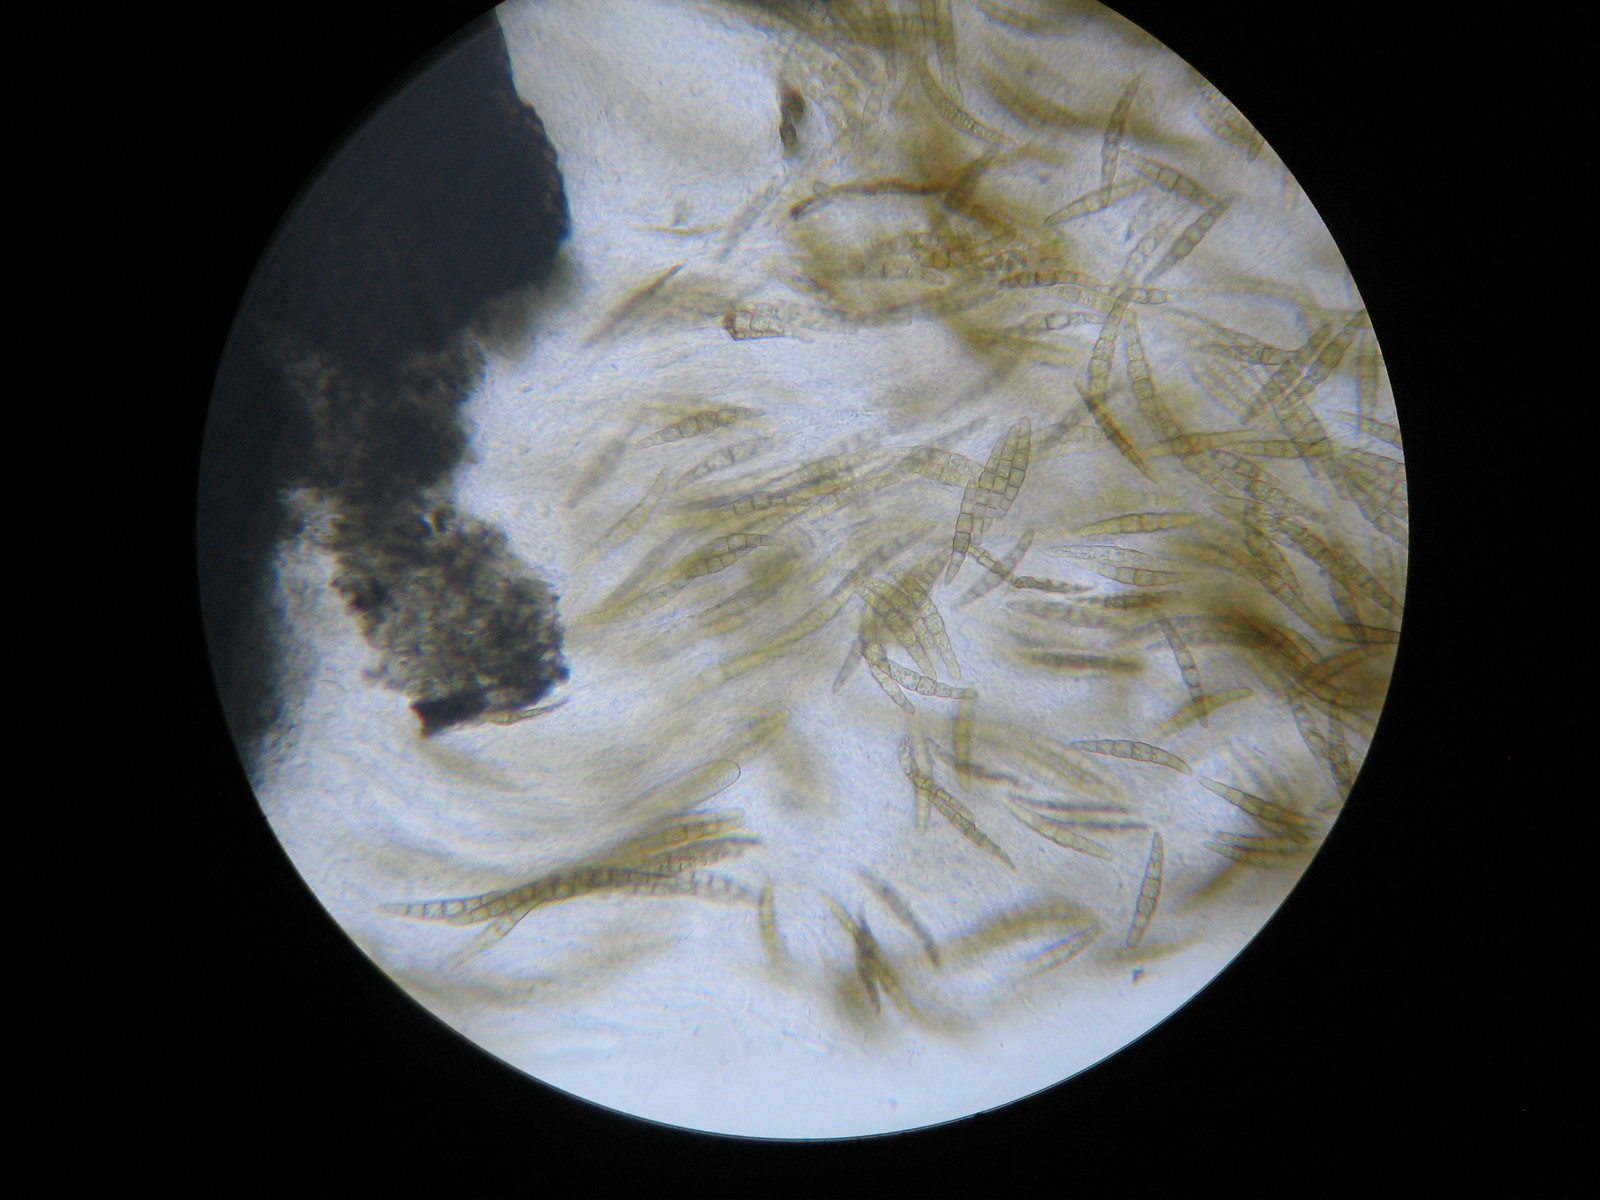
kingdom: Fungi
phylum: Ascomycota
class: Dothideomycetes
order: Pleosporales
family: Leptosphaeriaceae
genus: Leptosphaeria
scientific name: Leptosphaeria acuta
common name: spids kulkegle
